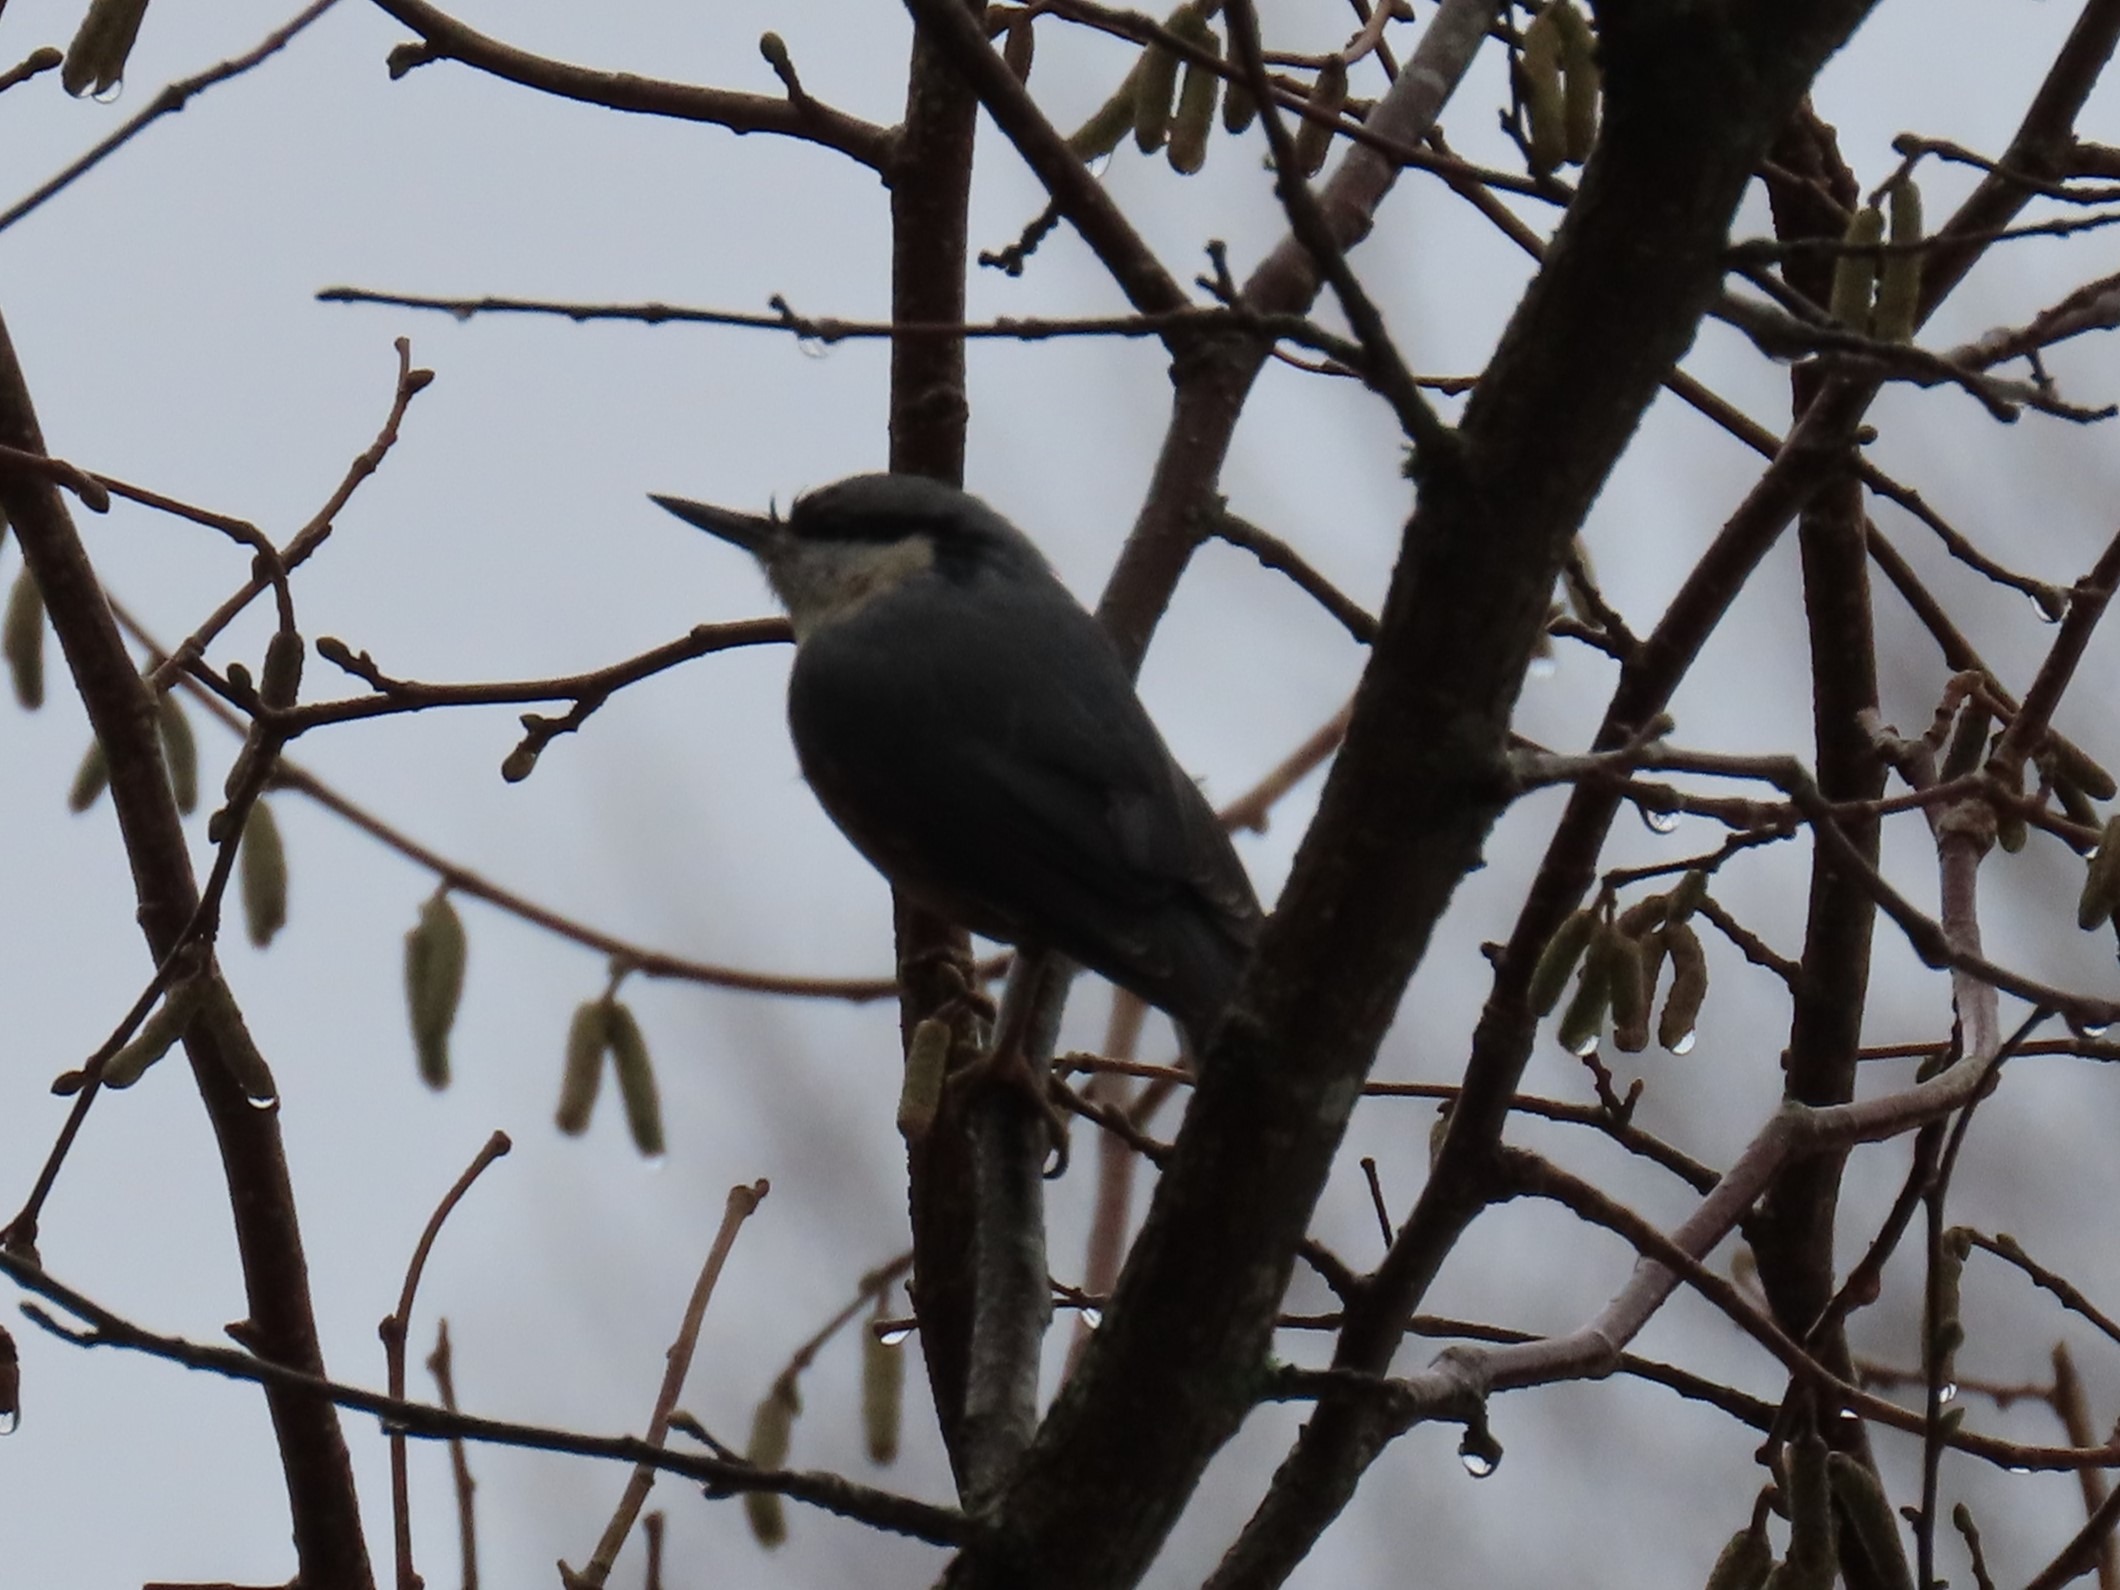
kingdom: Animalia
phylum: Chordata
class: Aves
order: Passeriformes
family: Sittidae
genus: Sitta
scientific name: Sitta europaea
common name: Spætmejse
